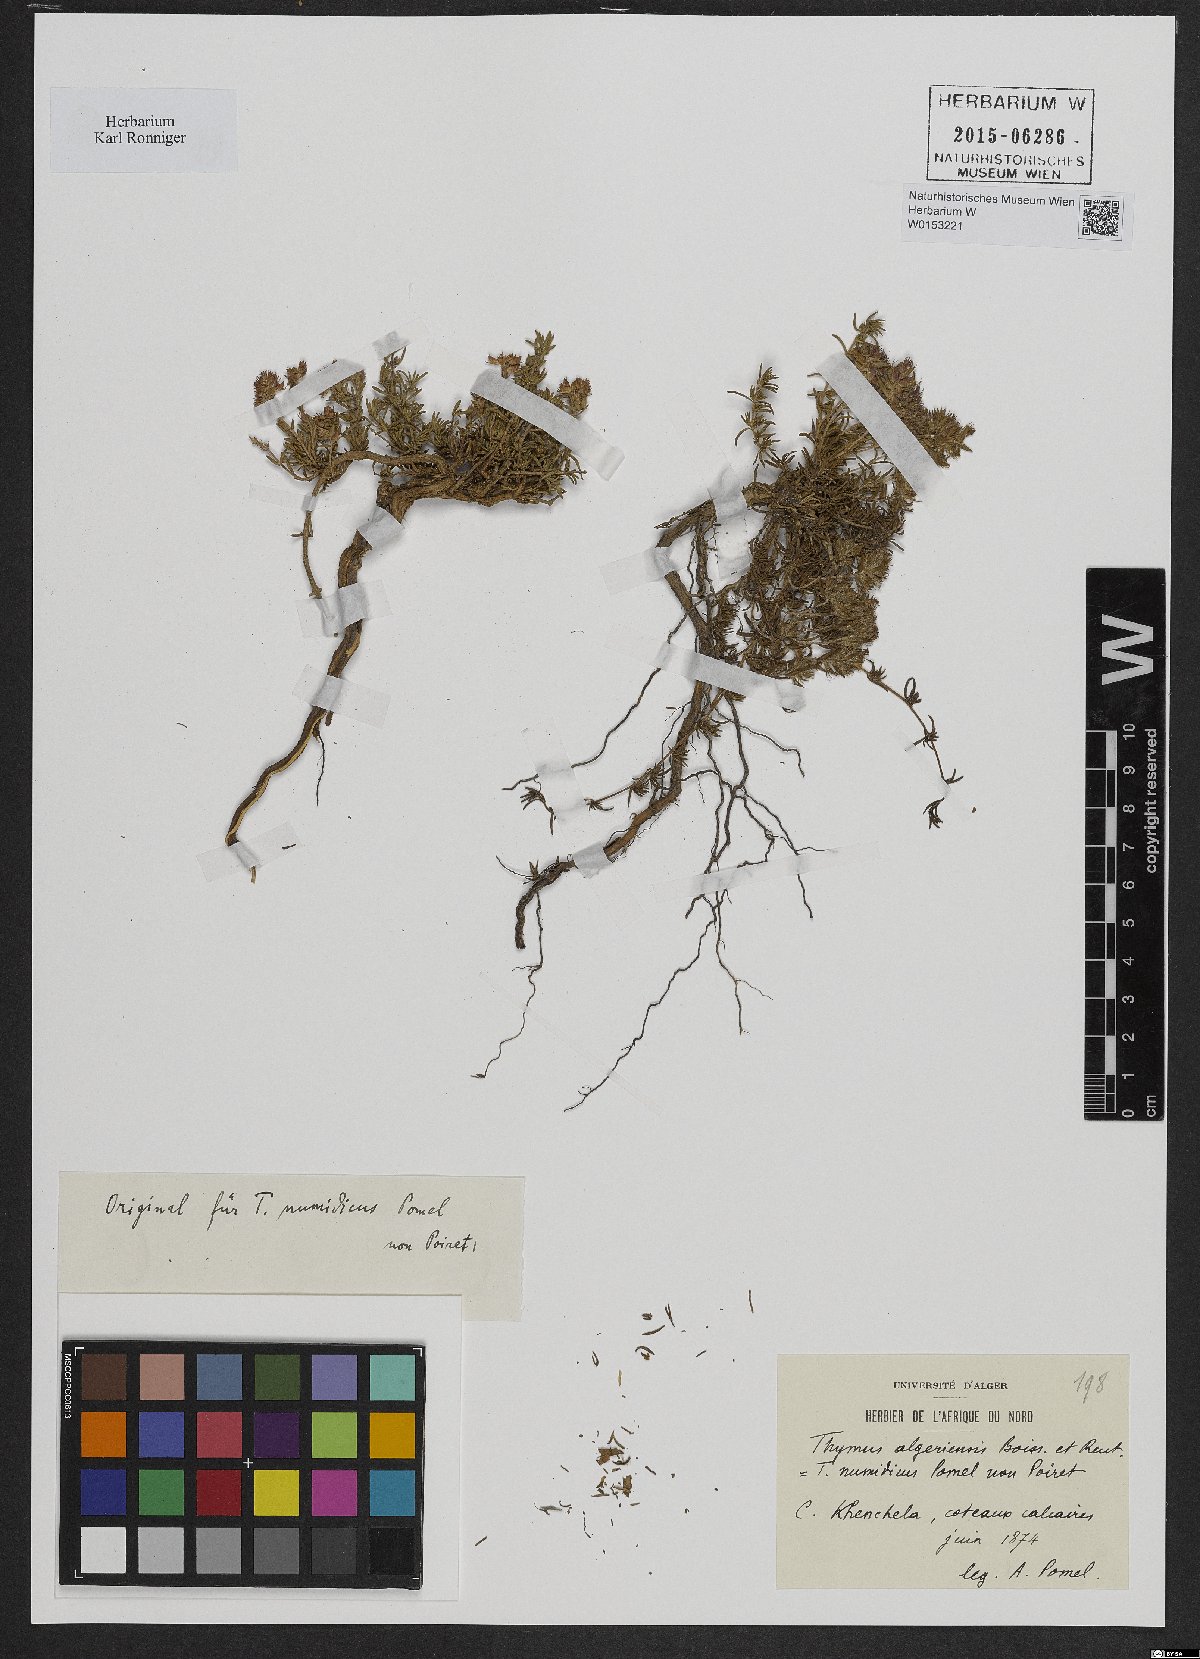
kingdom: Plantae
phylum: Tracheophyta
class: Magnoliopsida
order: Lamiales
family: Lamiaceae
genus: Thymus
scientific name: Thymus algeriensis
